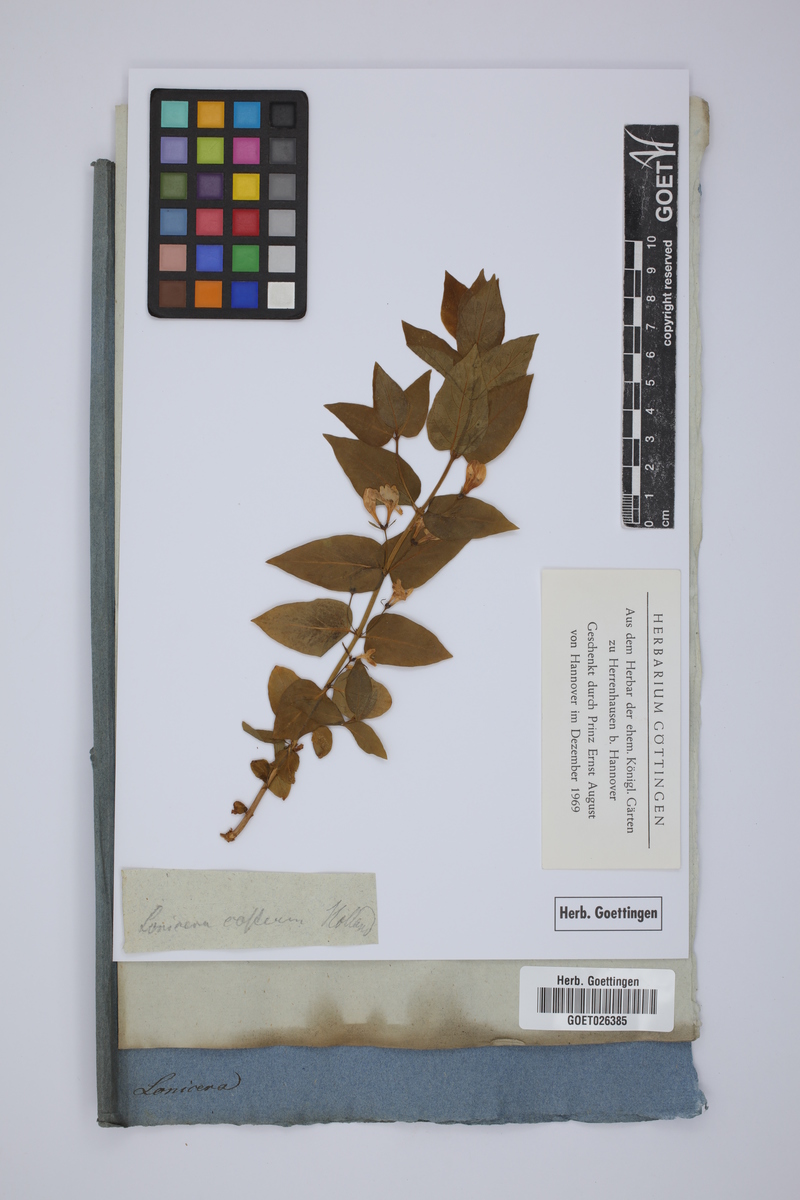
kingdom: Plantae
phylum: Tracheophyta
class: Magnoliopsida
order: Dipsacales
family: Caprifoliaceae
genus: Lonicera
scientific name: Lonicera
